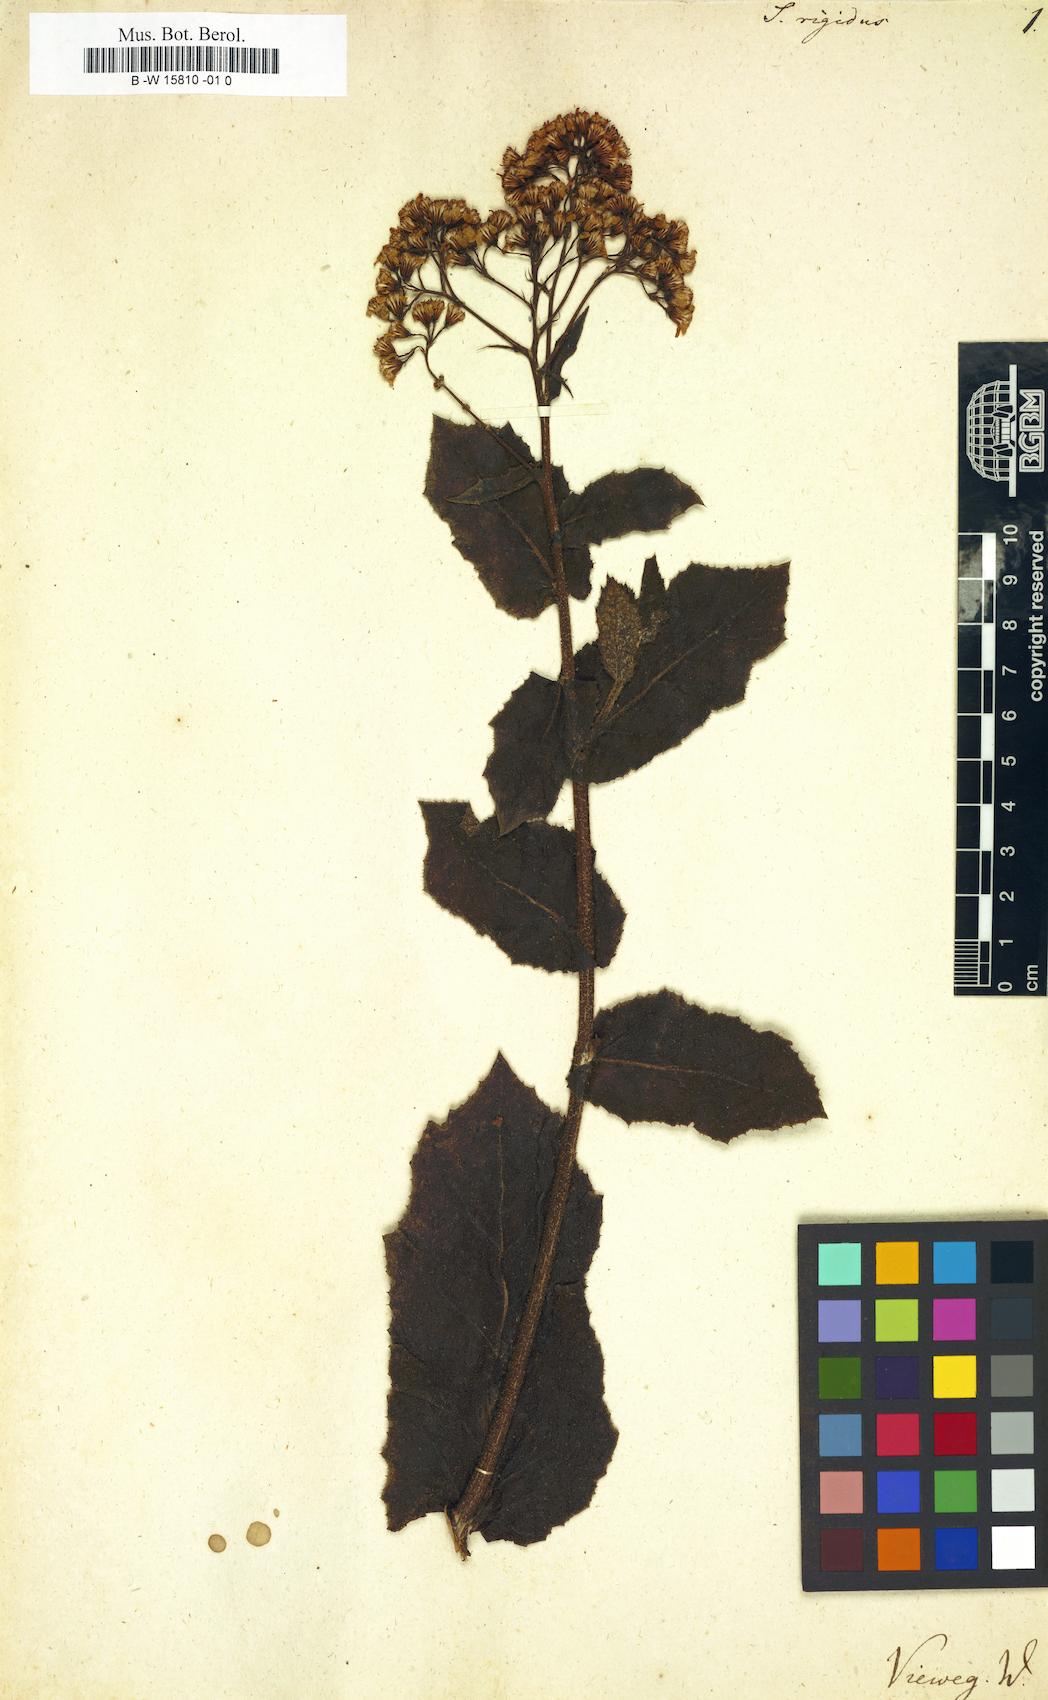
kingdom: Plantae
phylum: Tracheophyta
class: Magnoliopsida
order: Asterales
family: Asteraceae
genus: Senecio
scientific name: Senecio rigidus
